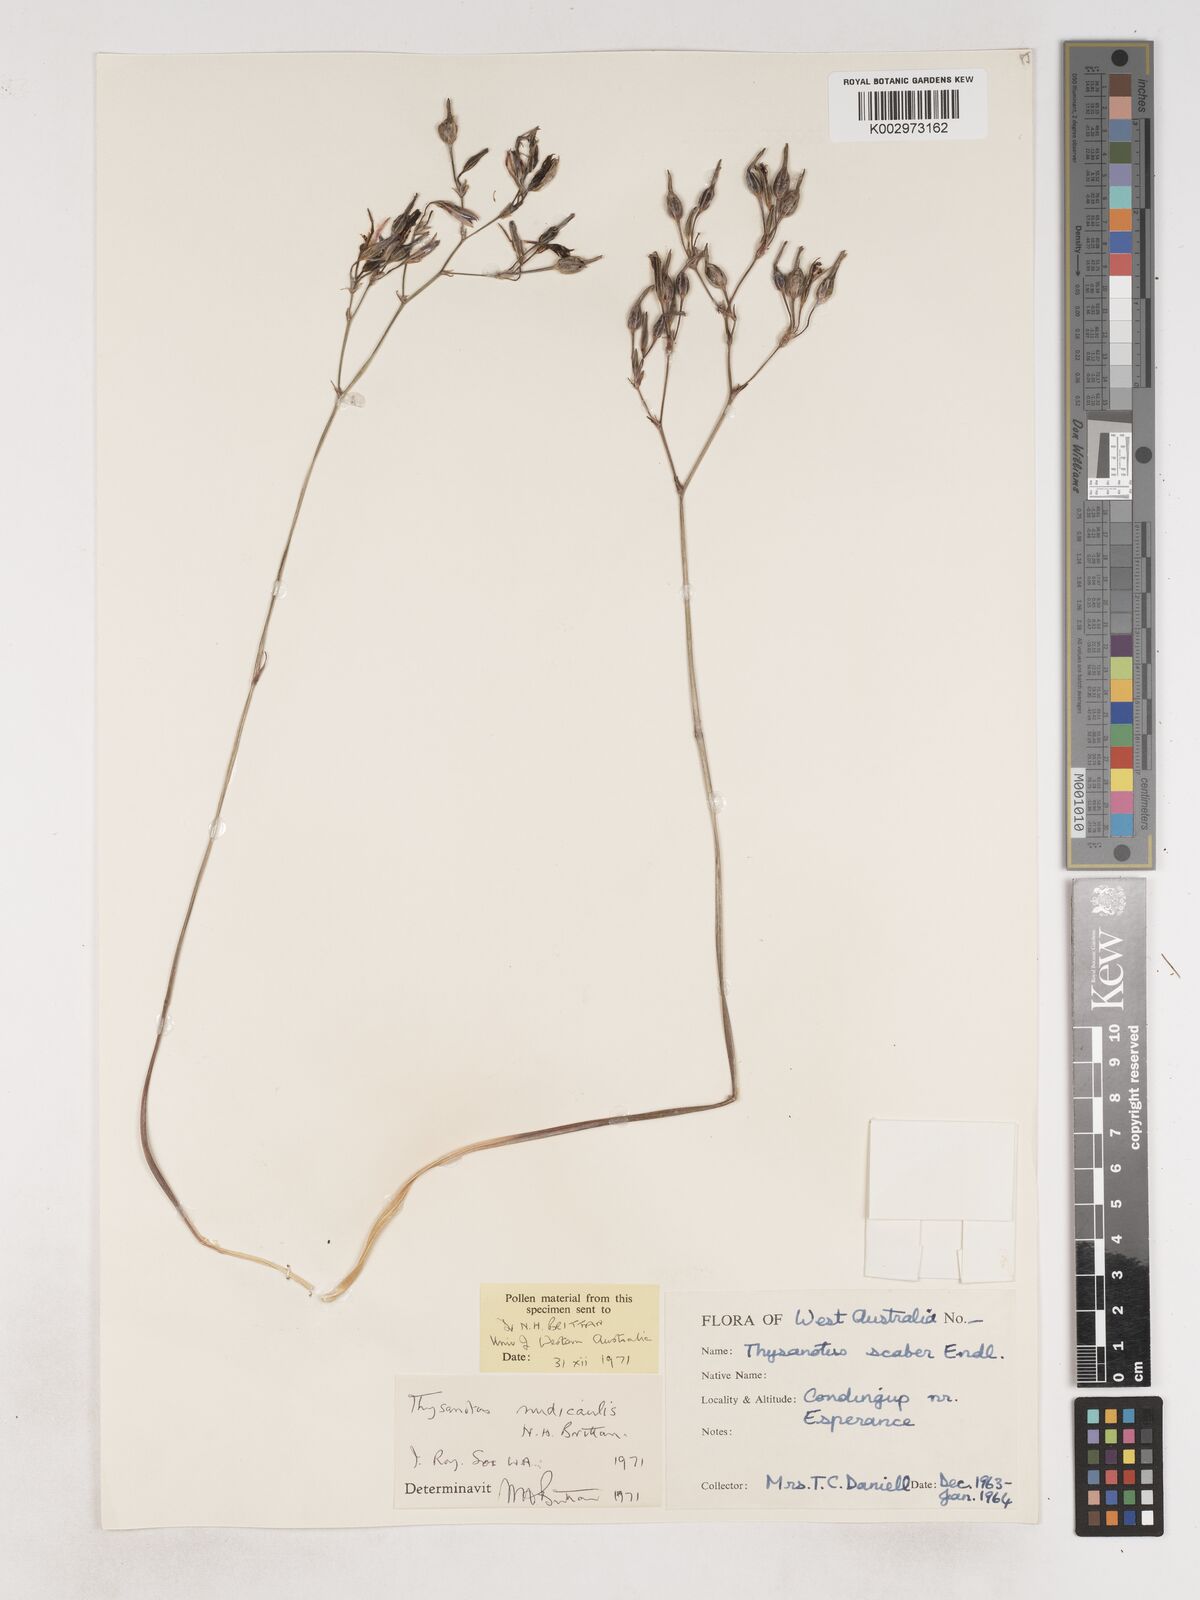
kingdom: Plantae
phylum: Tracheophyta
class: Liliopsida
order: Asparagales
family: Asparagaceae
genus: Thysanotus
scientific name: Thysanotus nudicaulis
